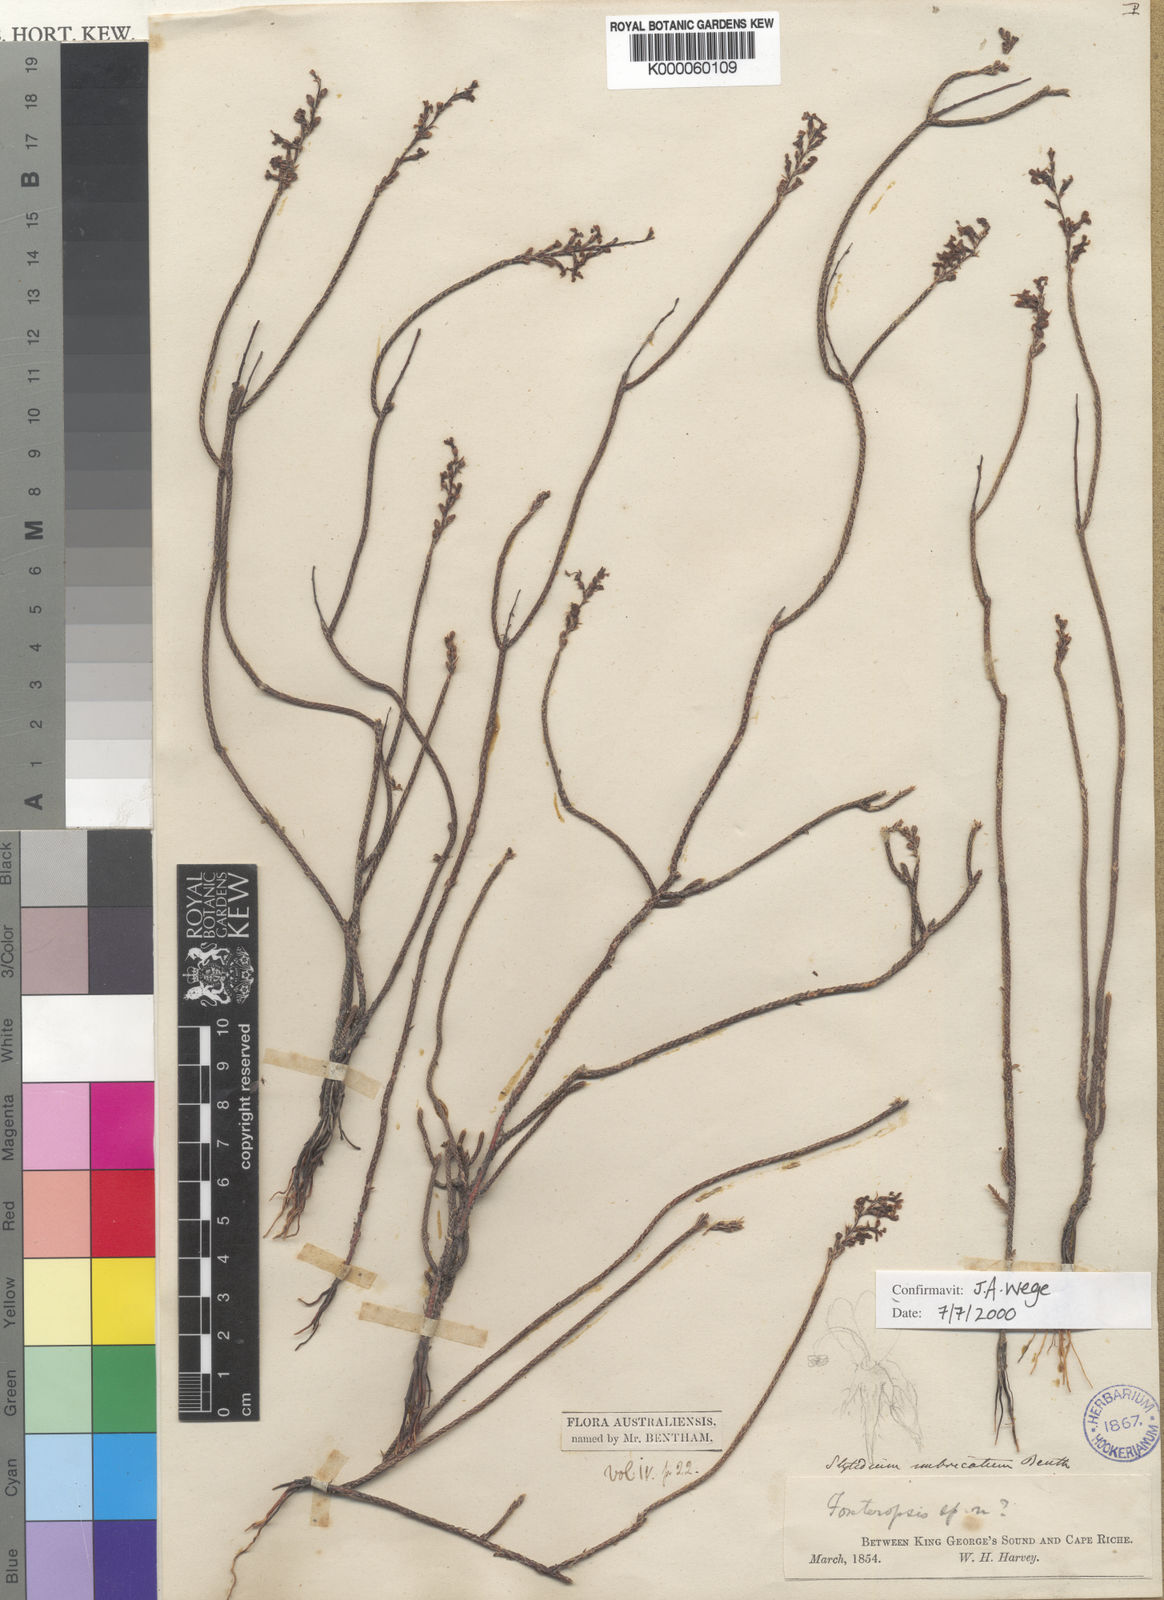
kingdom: Plantae
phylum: Tracheophyta
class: Magnoliopsida
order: Asterales
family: Stylidiaceae
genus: Stylidium
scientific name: Stylidium imbricatum
